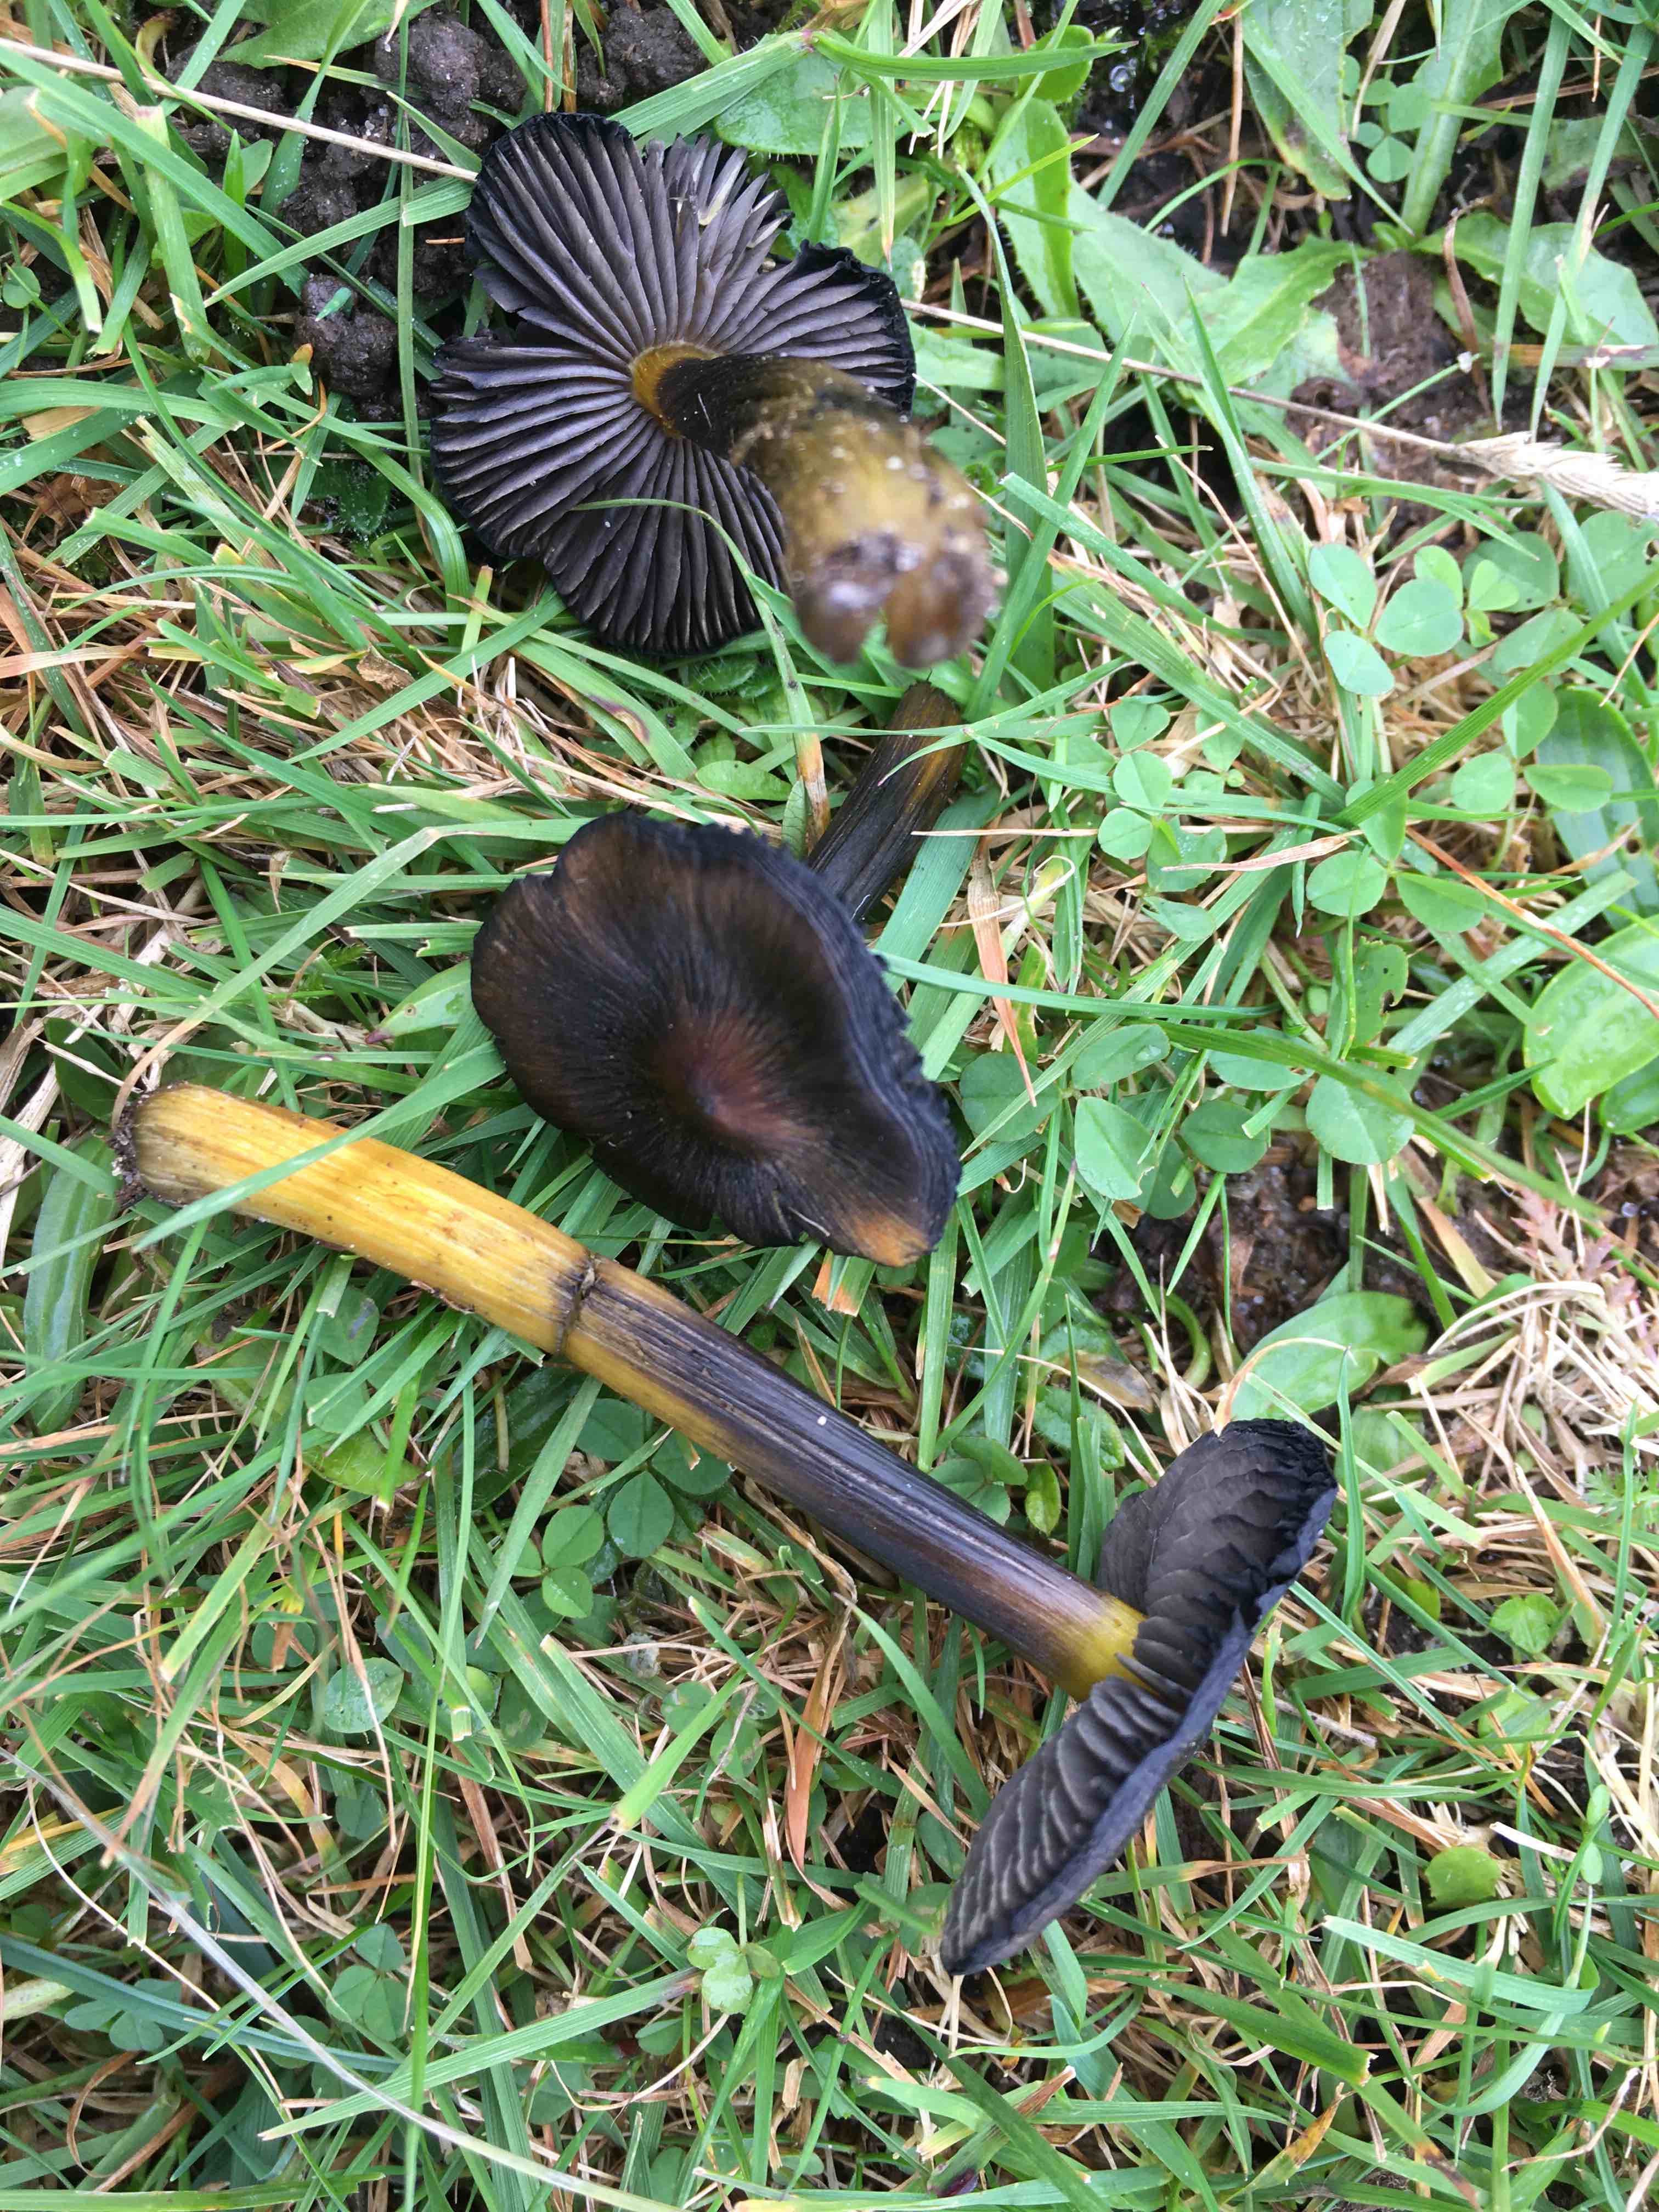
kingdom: Fungi
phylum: Basidiomycota
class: Agaricomycetes
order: Agaricales
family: Hygrophoraceae
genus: Hygrocybe
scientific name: Hygrocybe conica
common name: kegle-vokshat
